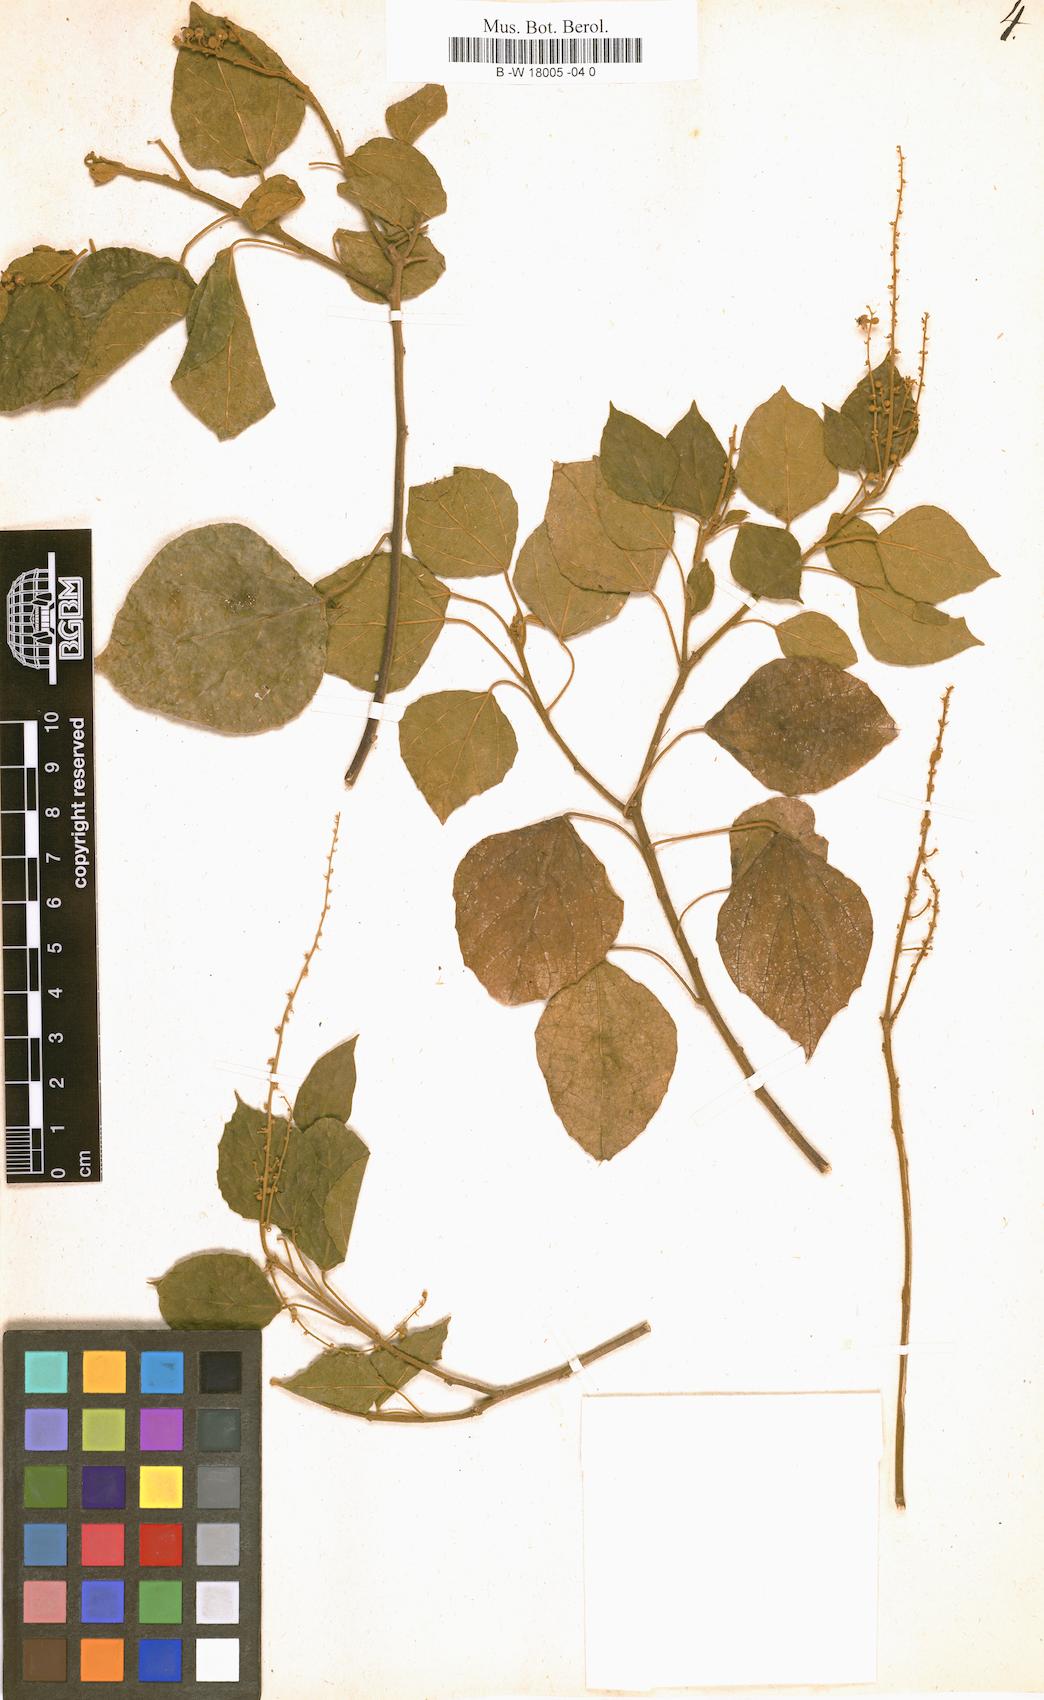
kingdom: Plantae
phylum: Tracheophyta
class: Magnoliopsida
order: Malpighiales
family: Euphorbiaceae
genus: Croton
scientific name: Croton aromaticus
